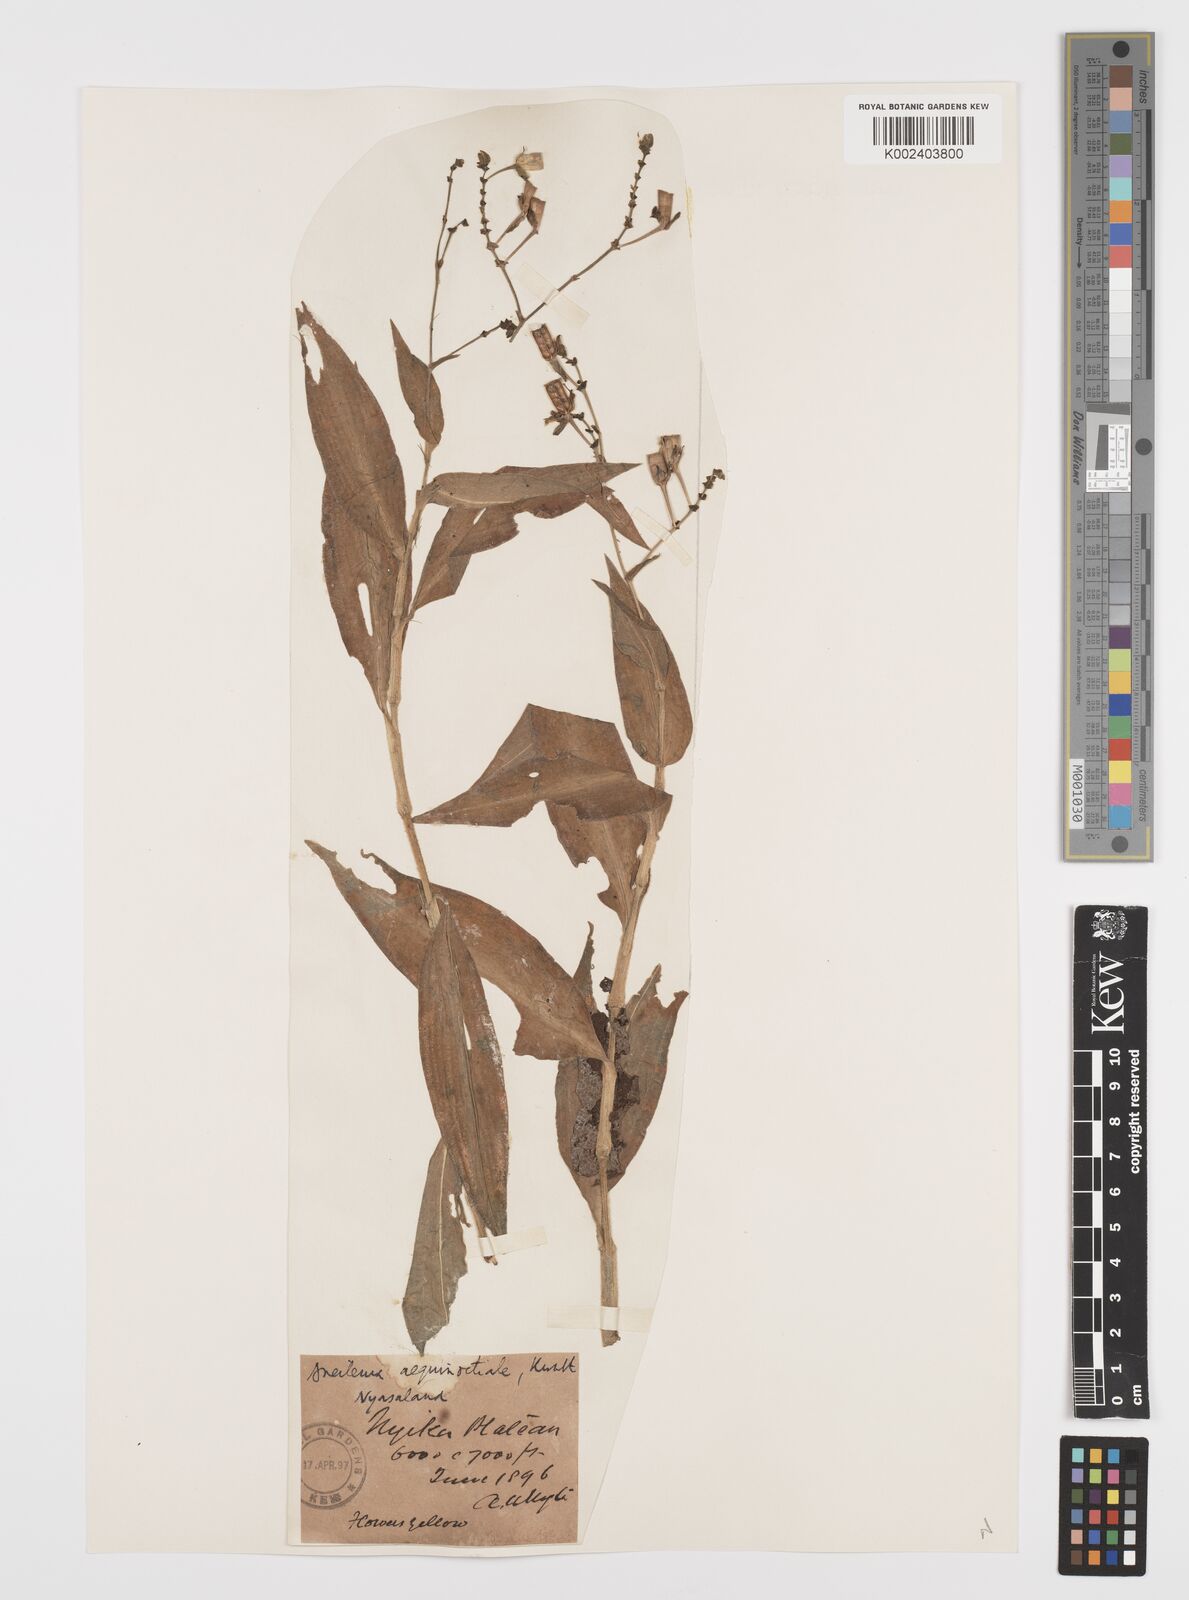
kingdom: Plantae
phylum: Tracheophyta
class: Liliopsida
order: Commelinales
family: Commelinaceae
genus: Aneilema
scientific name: Aneilema aequinoctiale
